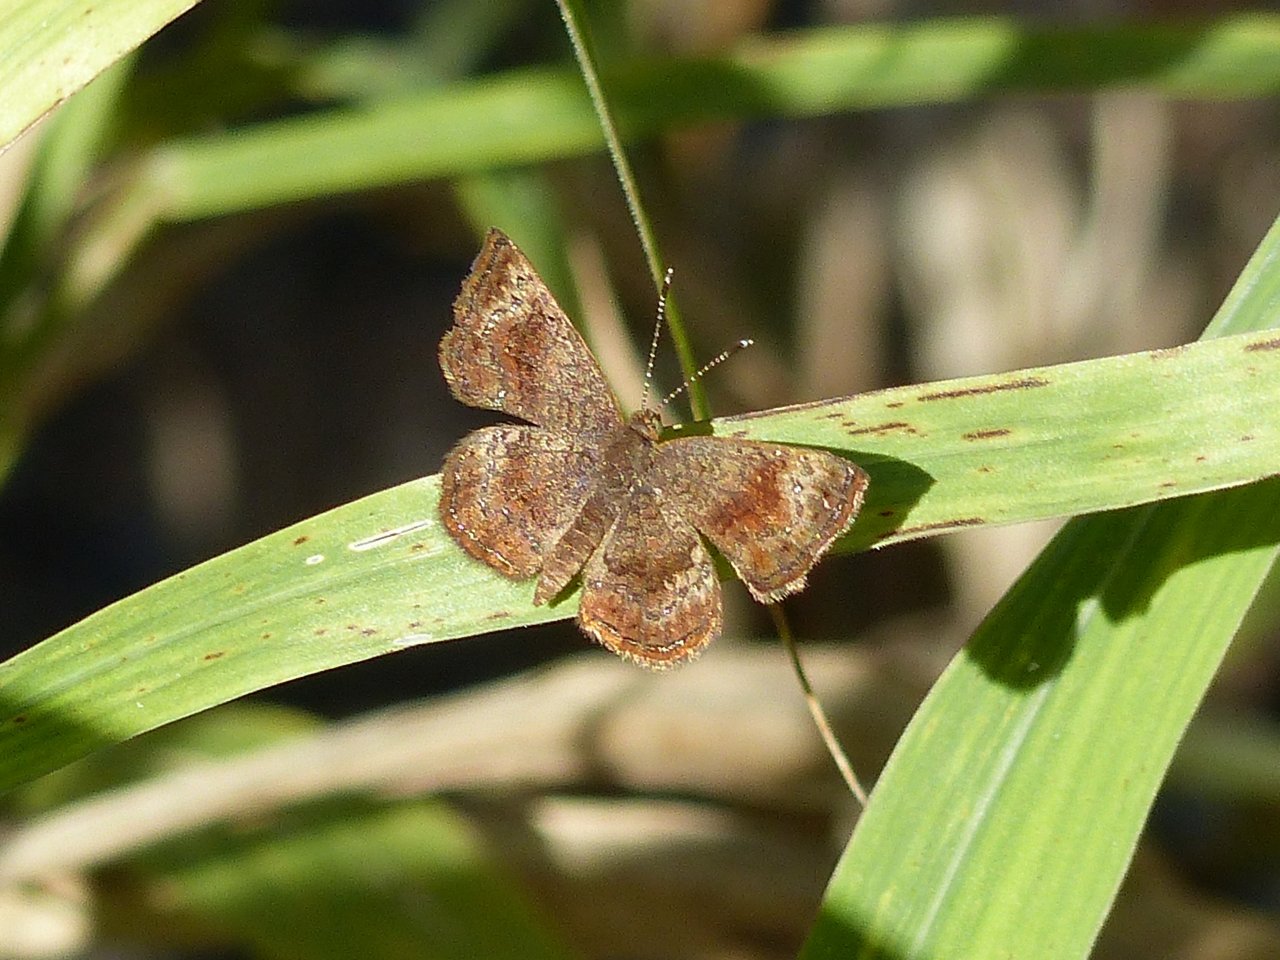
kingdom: Animalia
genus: Calephelis
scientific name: Calephelis perditalis
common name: Rounded Metalmark
